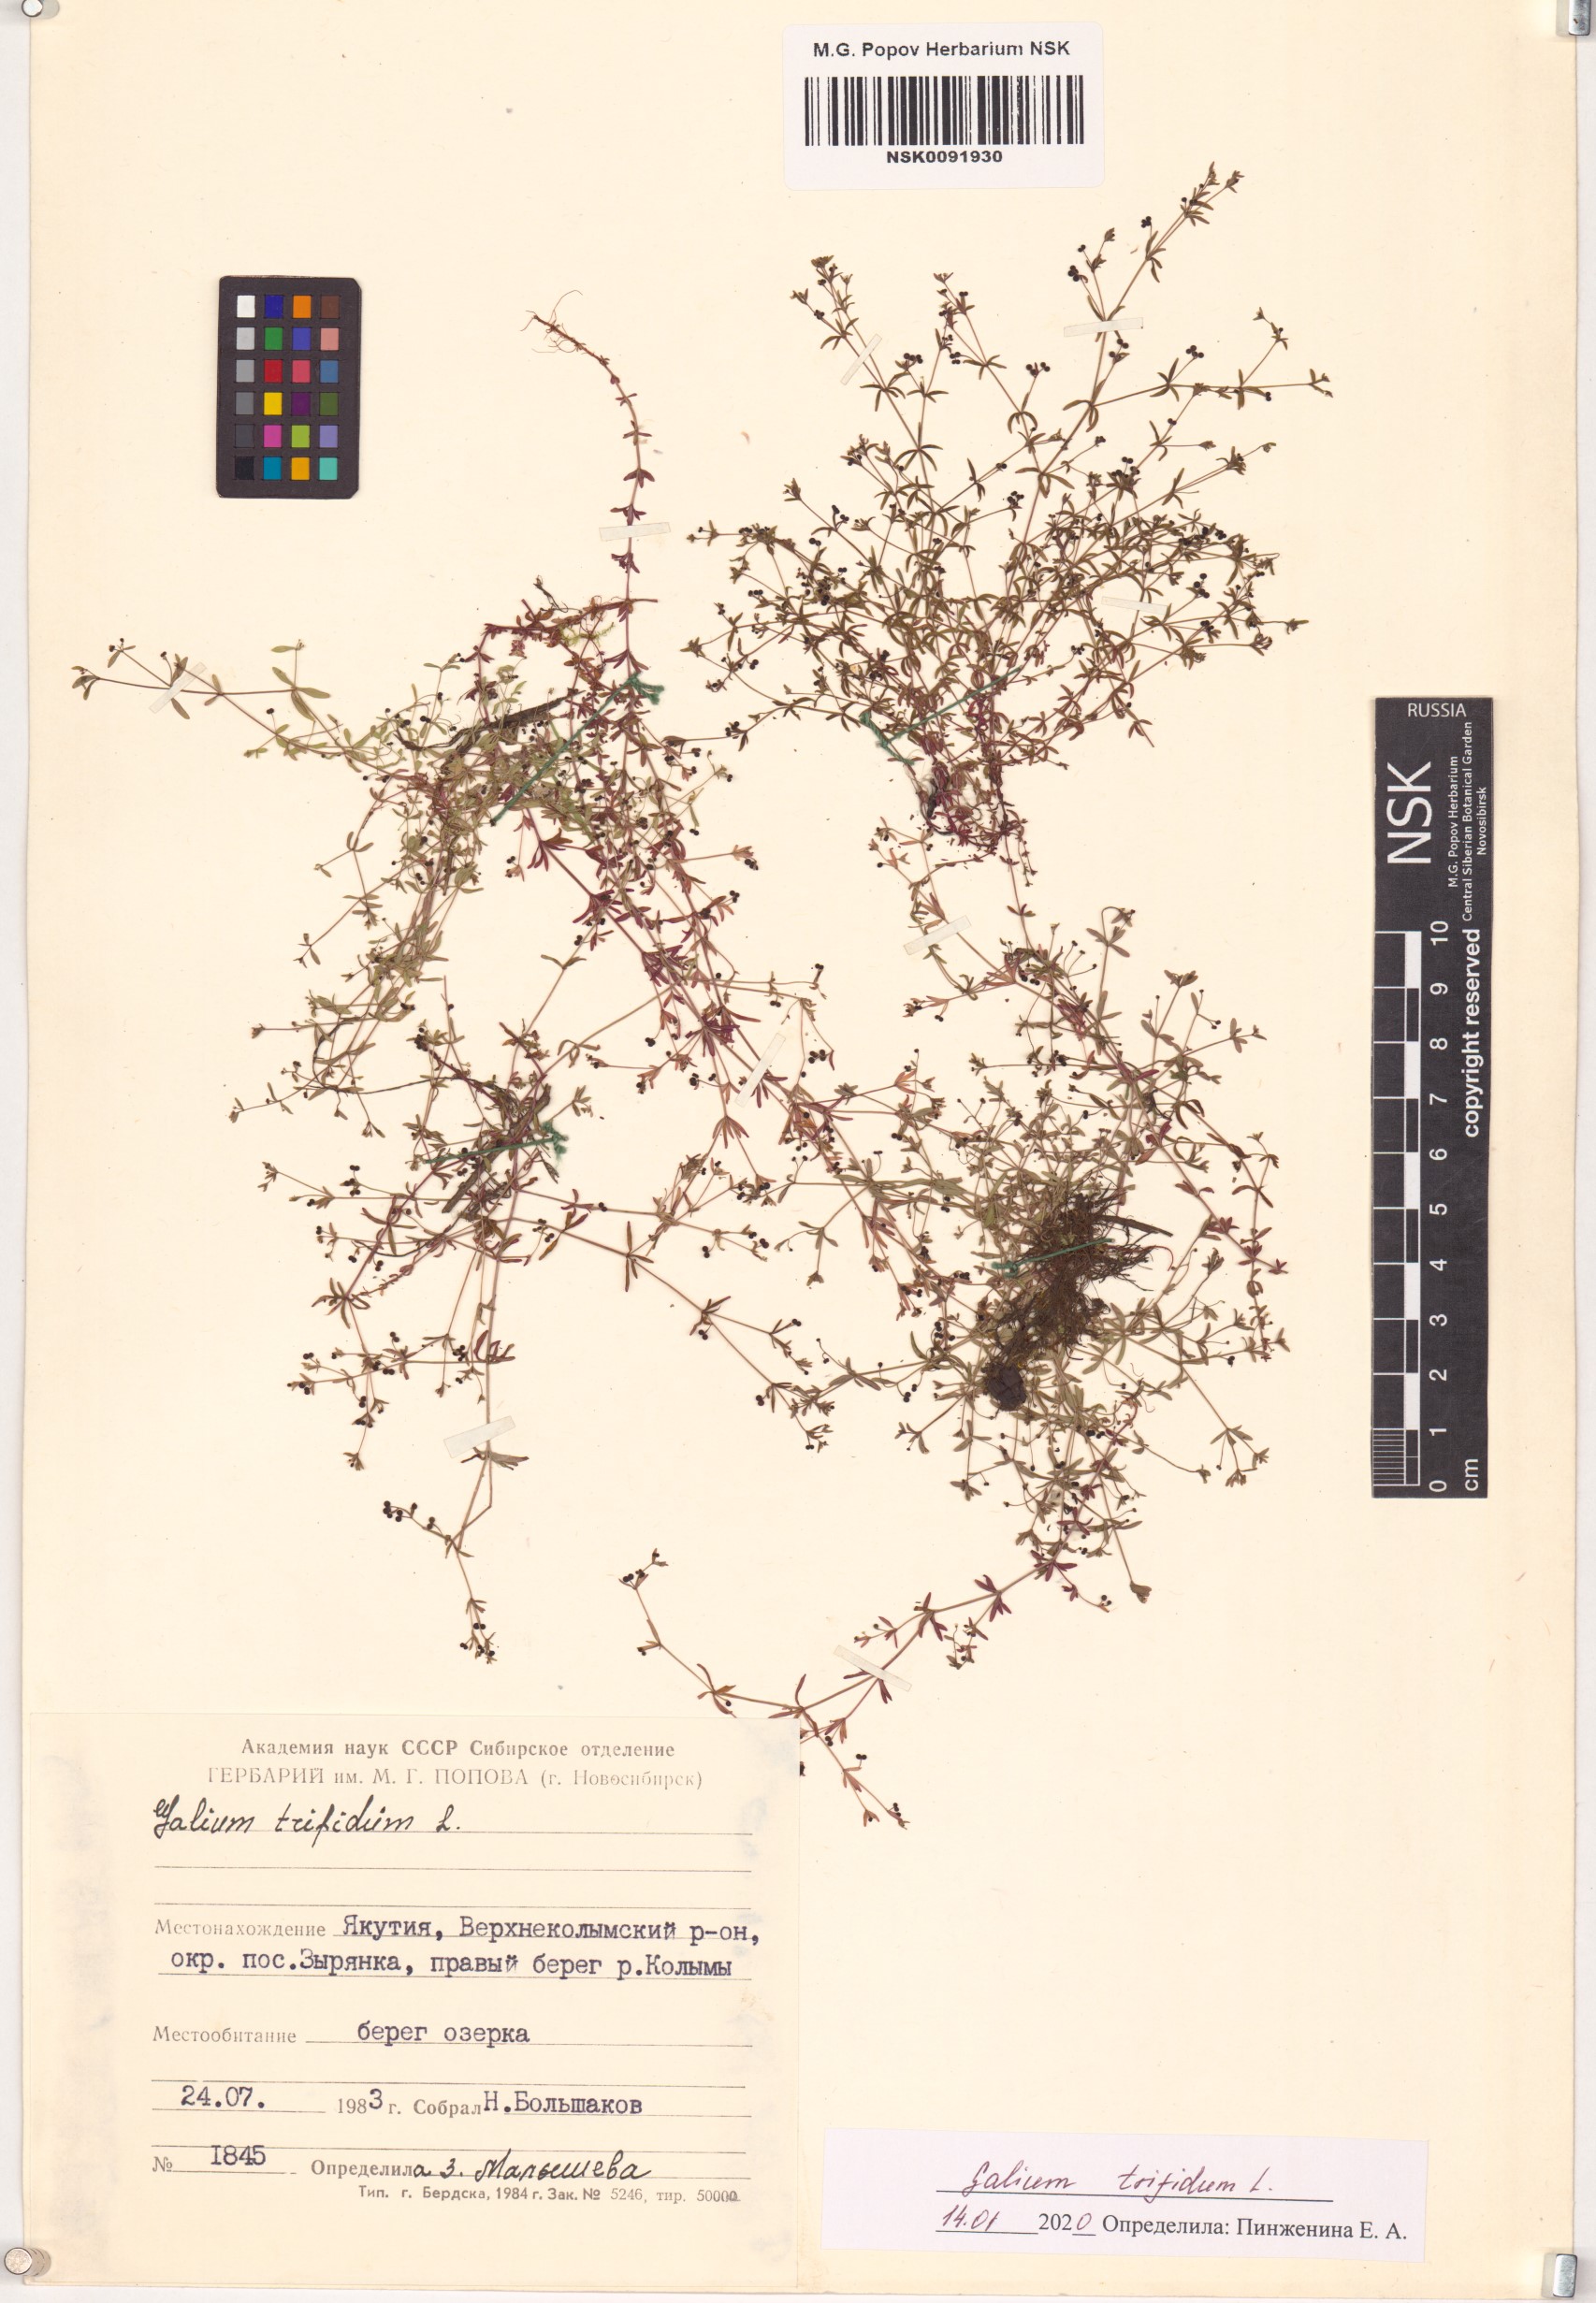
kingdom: Plantae
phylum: Tracheophyta
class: Magnoliopsida
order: Gentianales
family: Rubiaceae
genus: Galium
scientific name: Galium trifidum
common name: Small bedstraw
